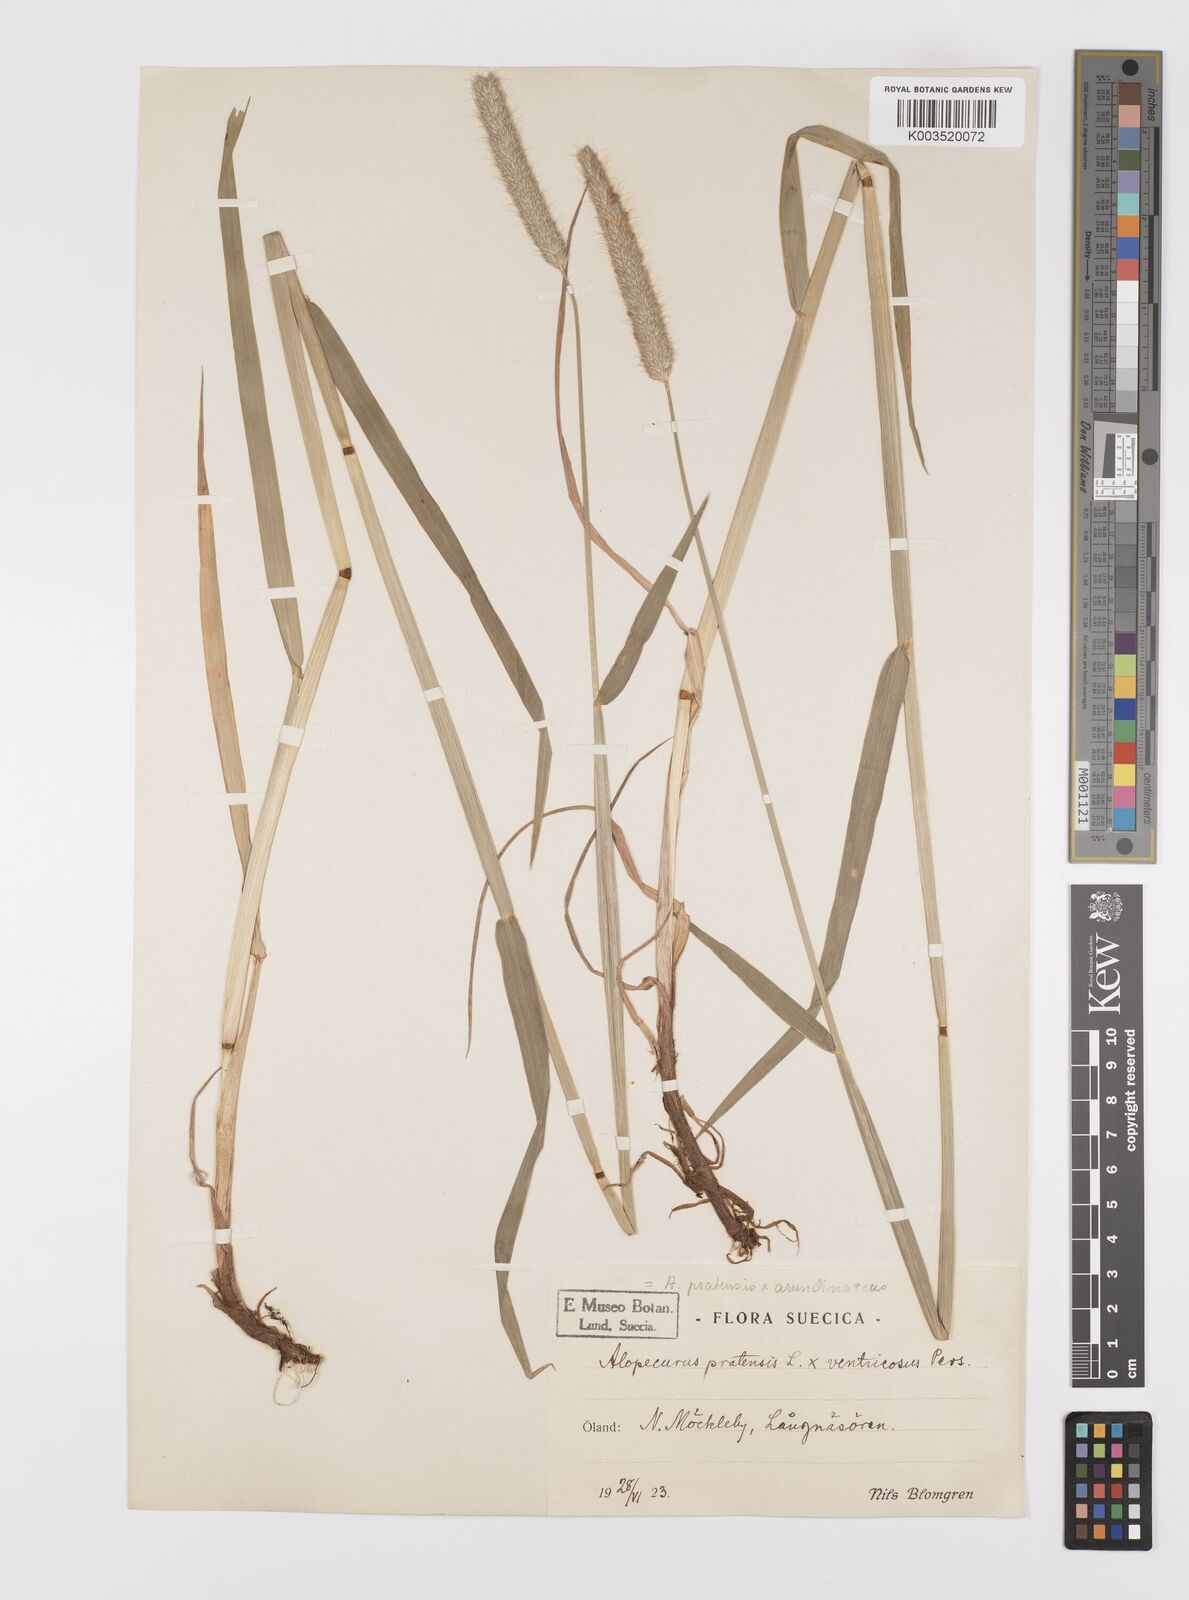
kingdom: Plantae
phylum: Tracheophyta
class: Liliopsida
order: Poales
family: Poaceae
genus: Alopecurus
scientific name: Alopecurus arundinaceus
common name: Creeping meadow foxtail
